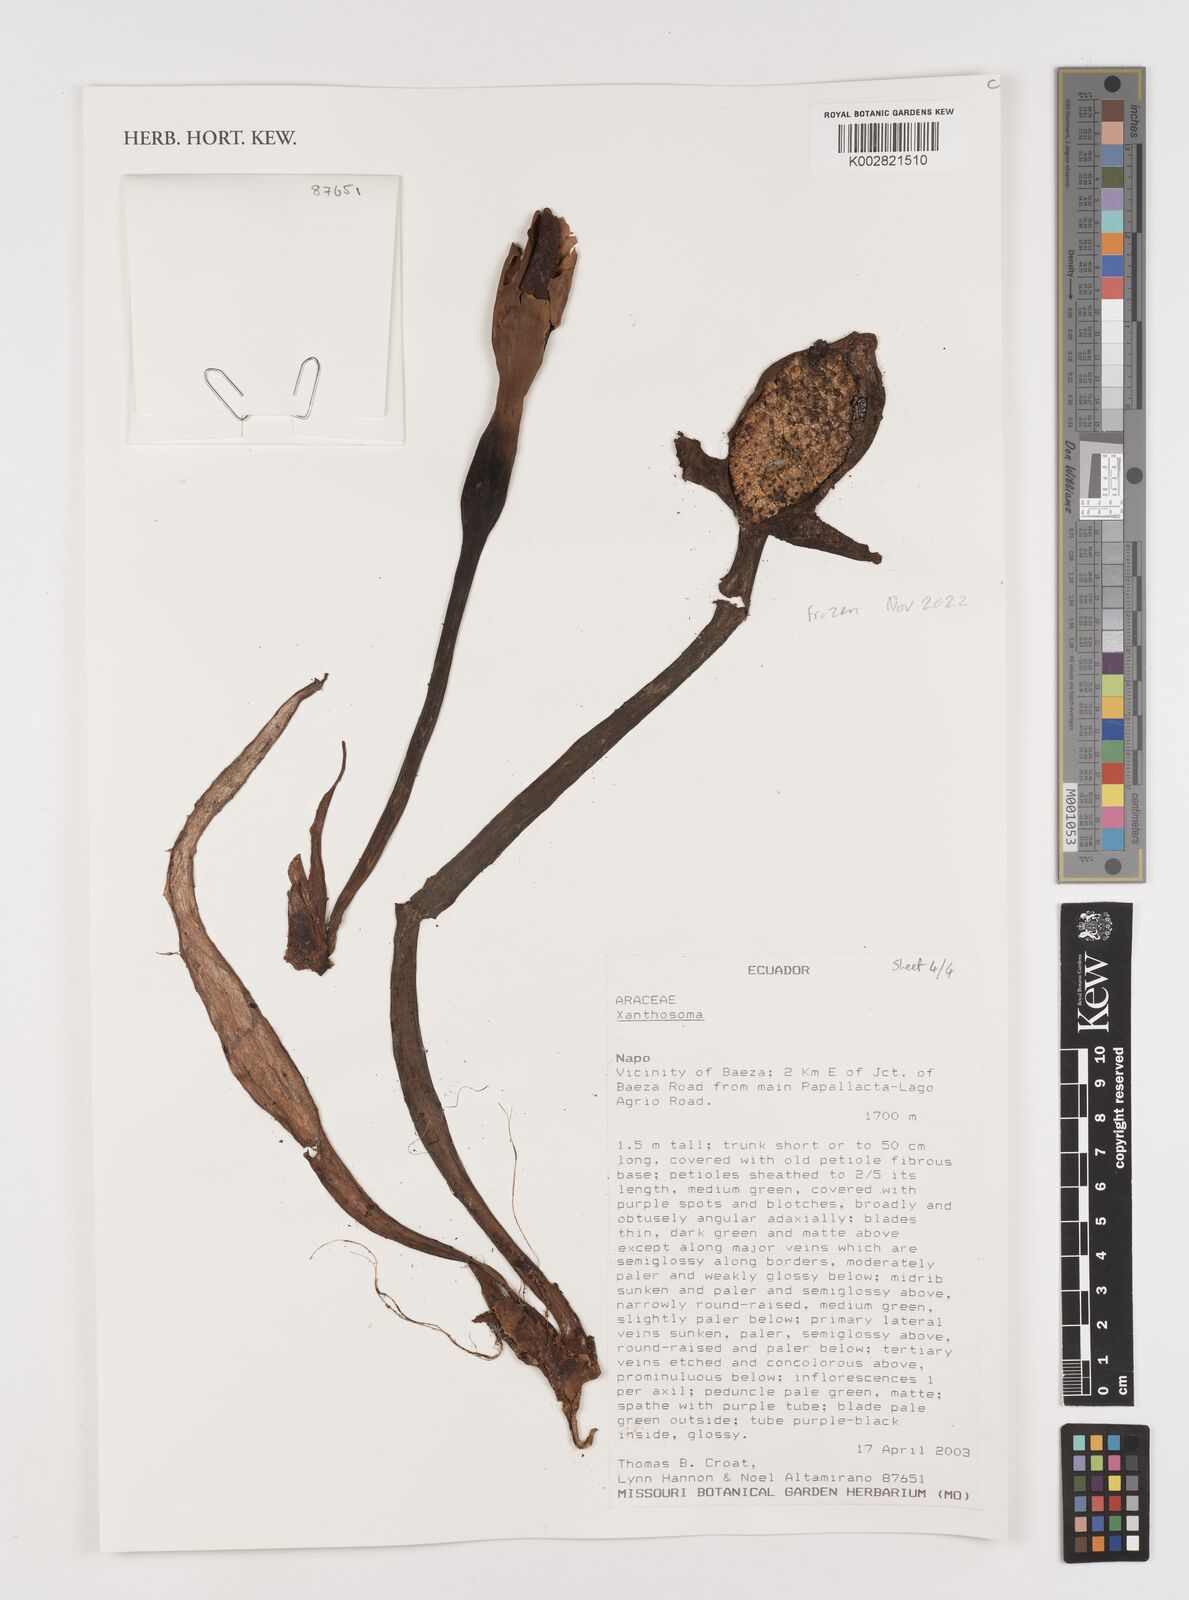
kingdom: Plantae
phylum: Tracheophyta
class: Liliopsida
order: Alismatales
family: Araceae
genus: Xanthosoma
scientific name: Xanthosoma
